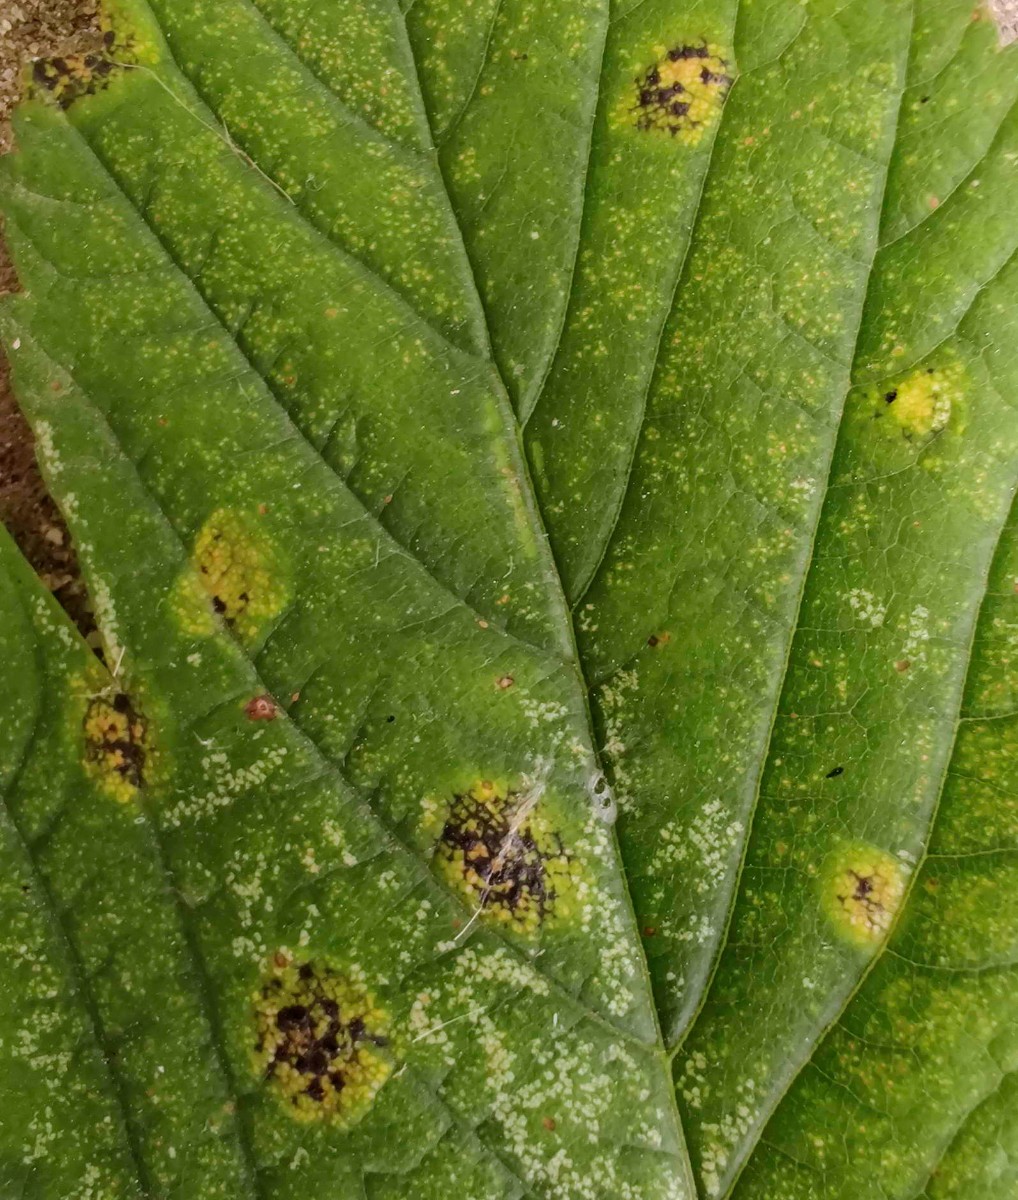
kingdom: Fungi
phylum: Ascomycota
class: Leotiomycetes
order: Rhytismatales
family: Rhytismataceae
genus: Rhytisma
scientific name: Rhytisma acerinum
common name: ahorn-rynkeplet
